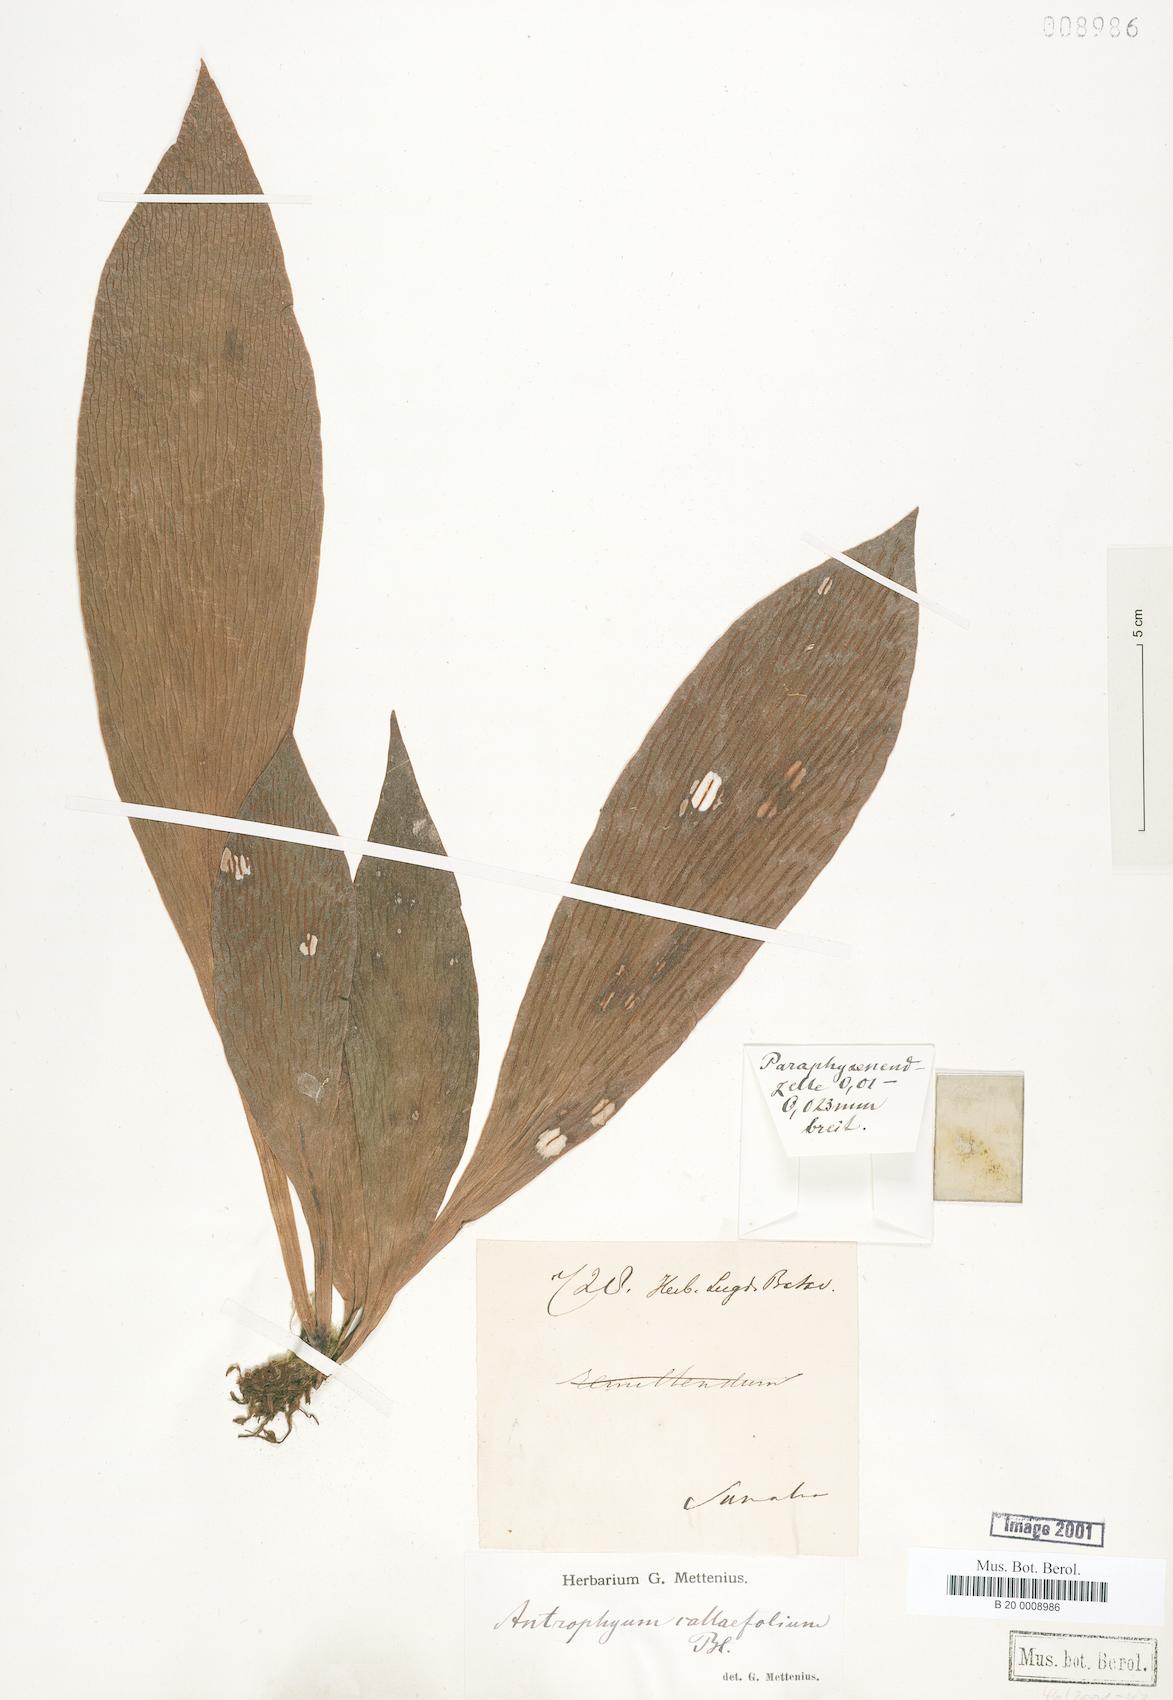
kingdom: Plantae
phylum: Tracheophyta
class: Polypodiopsida
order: Polypodiales
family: Pteridaceae
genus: Antrophyum
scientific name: Antrophyum callifolium
